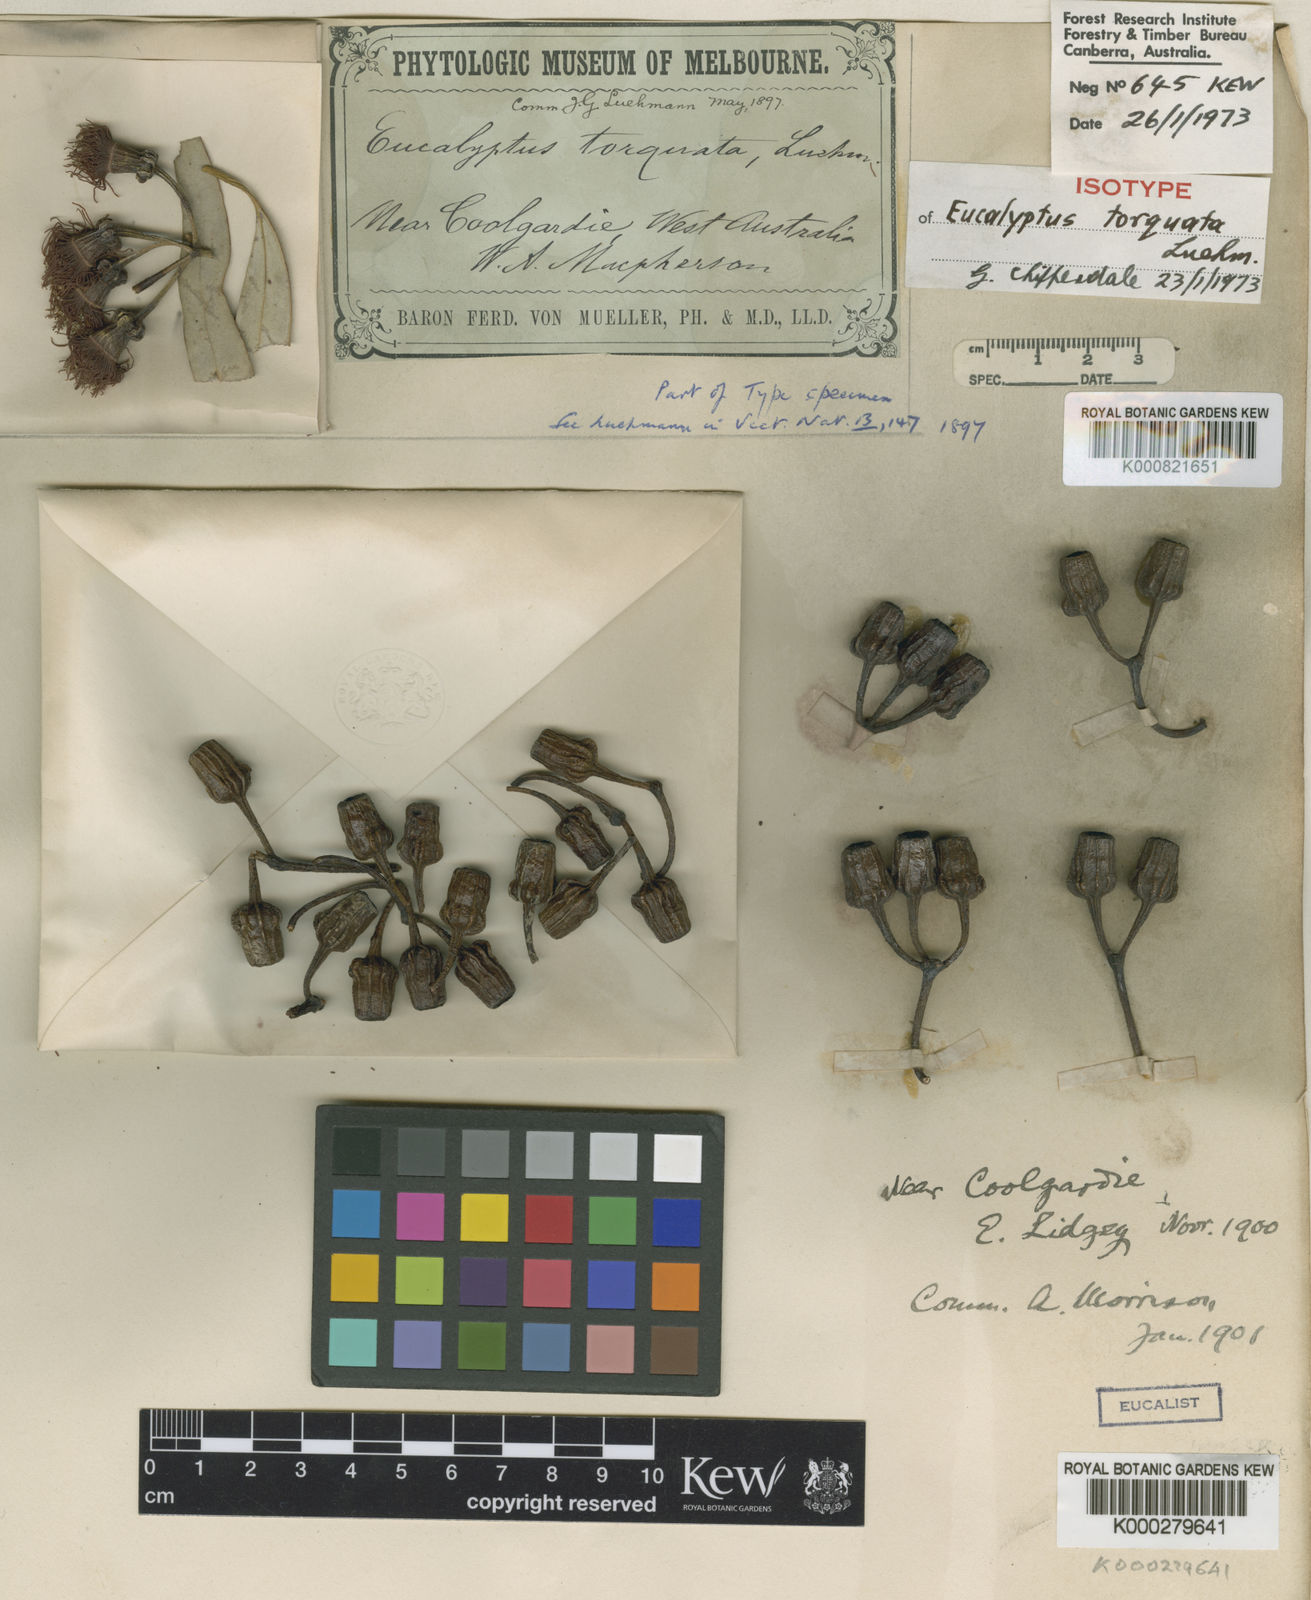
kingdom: Plantae
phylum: Tracheophyta
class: Magnoliopsida
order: Myrtales
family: Myrtaceae
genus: Eucalyptus
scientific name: Eucalyptus torquata
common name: Coral gum
